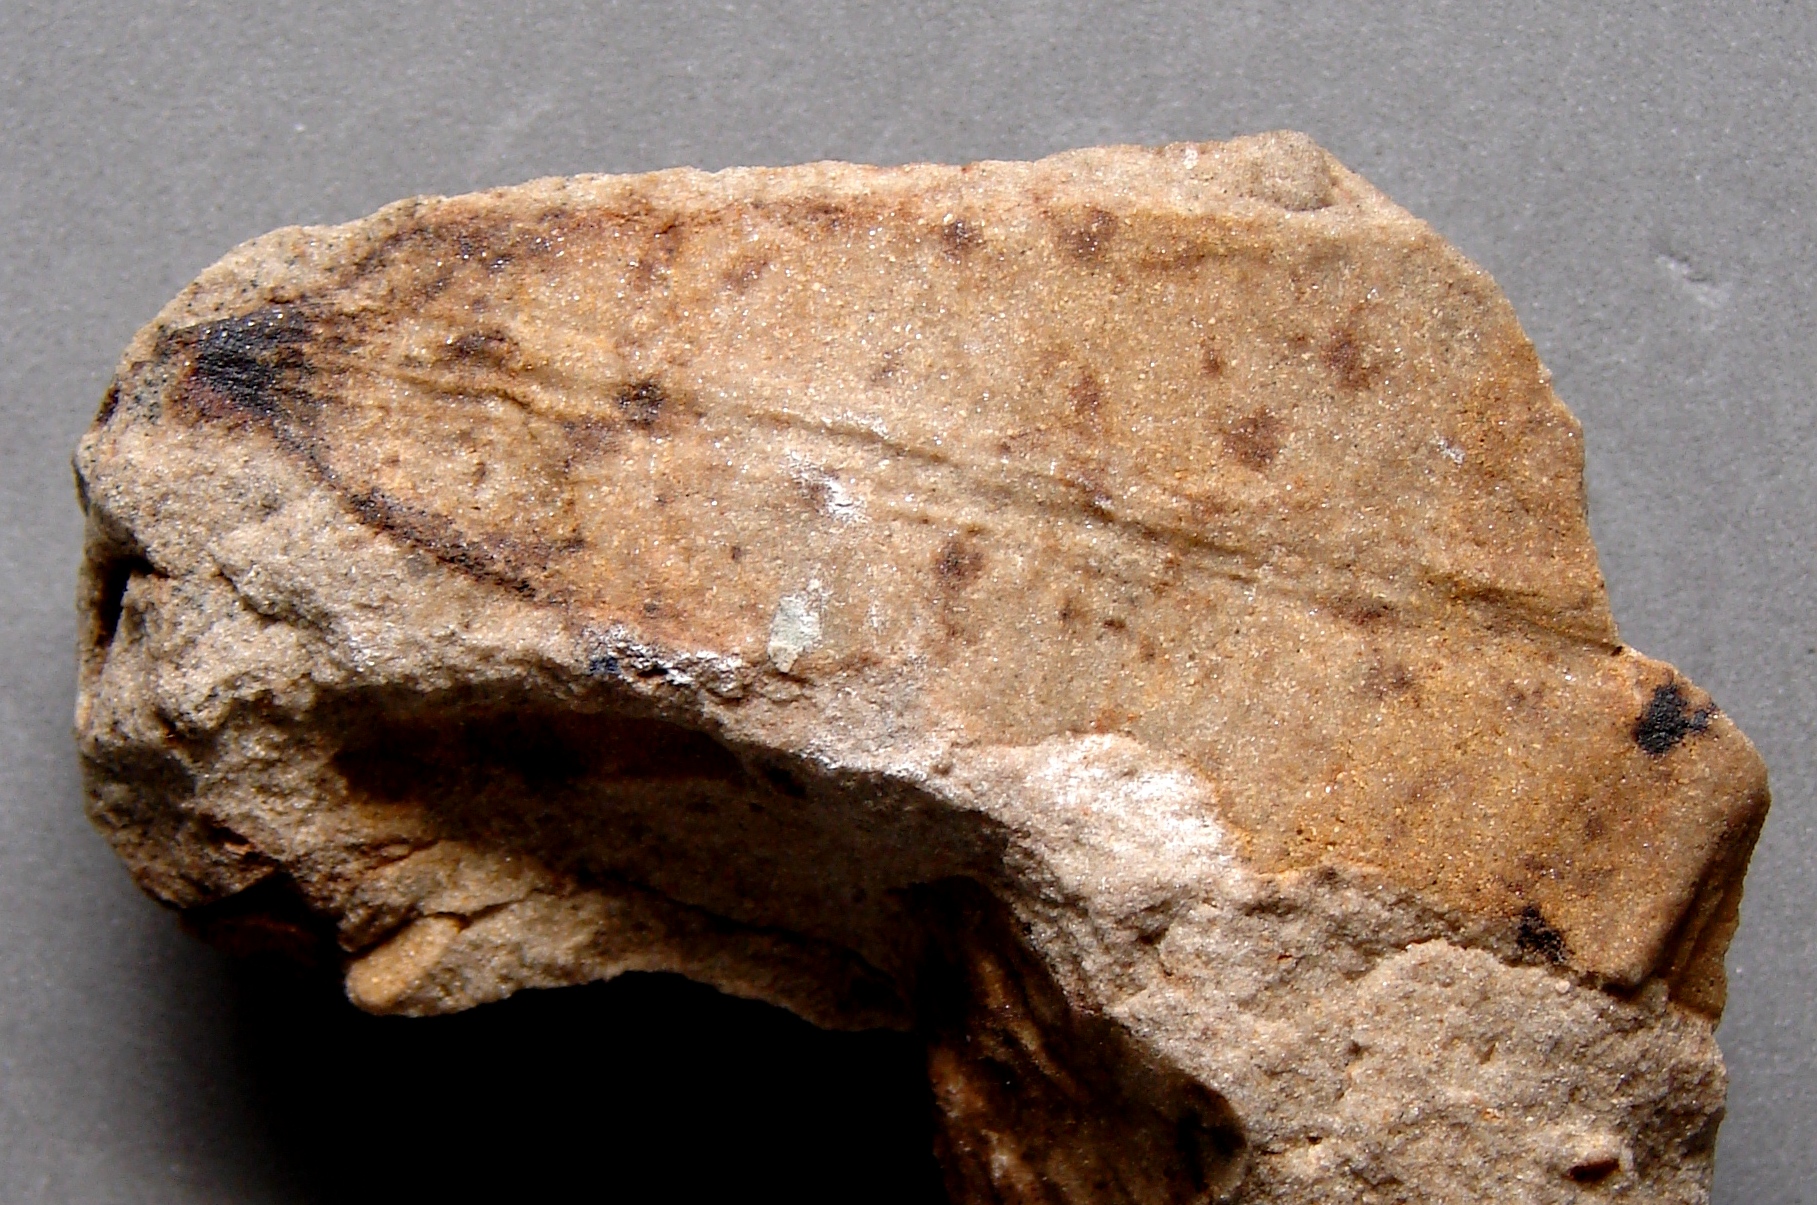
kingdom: Plantae
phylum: Tracheophyta
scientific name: Tracheophyta
